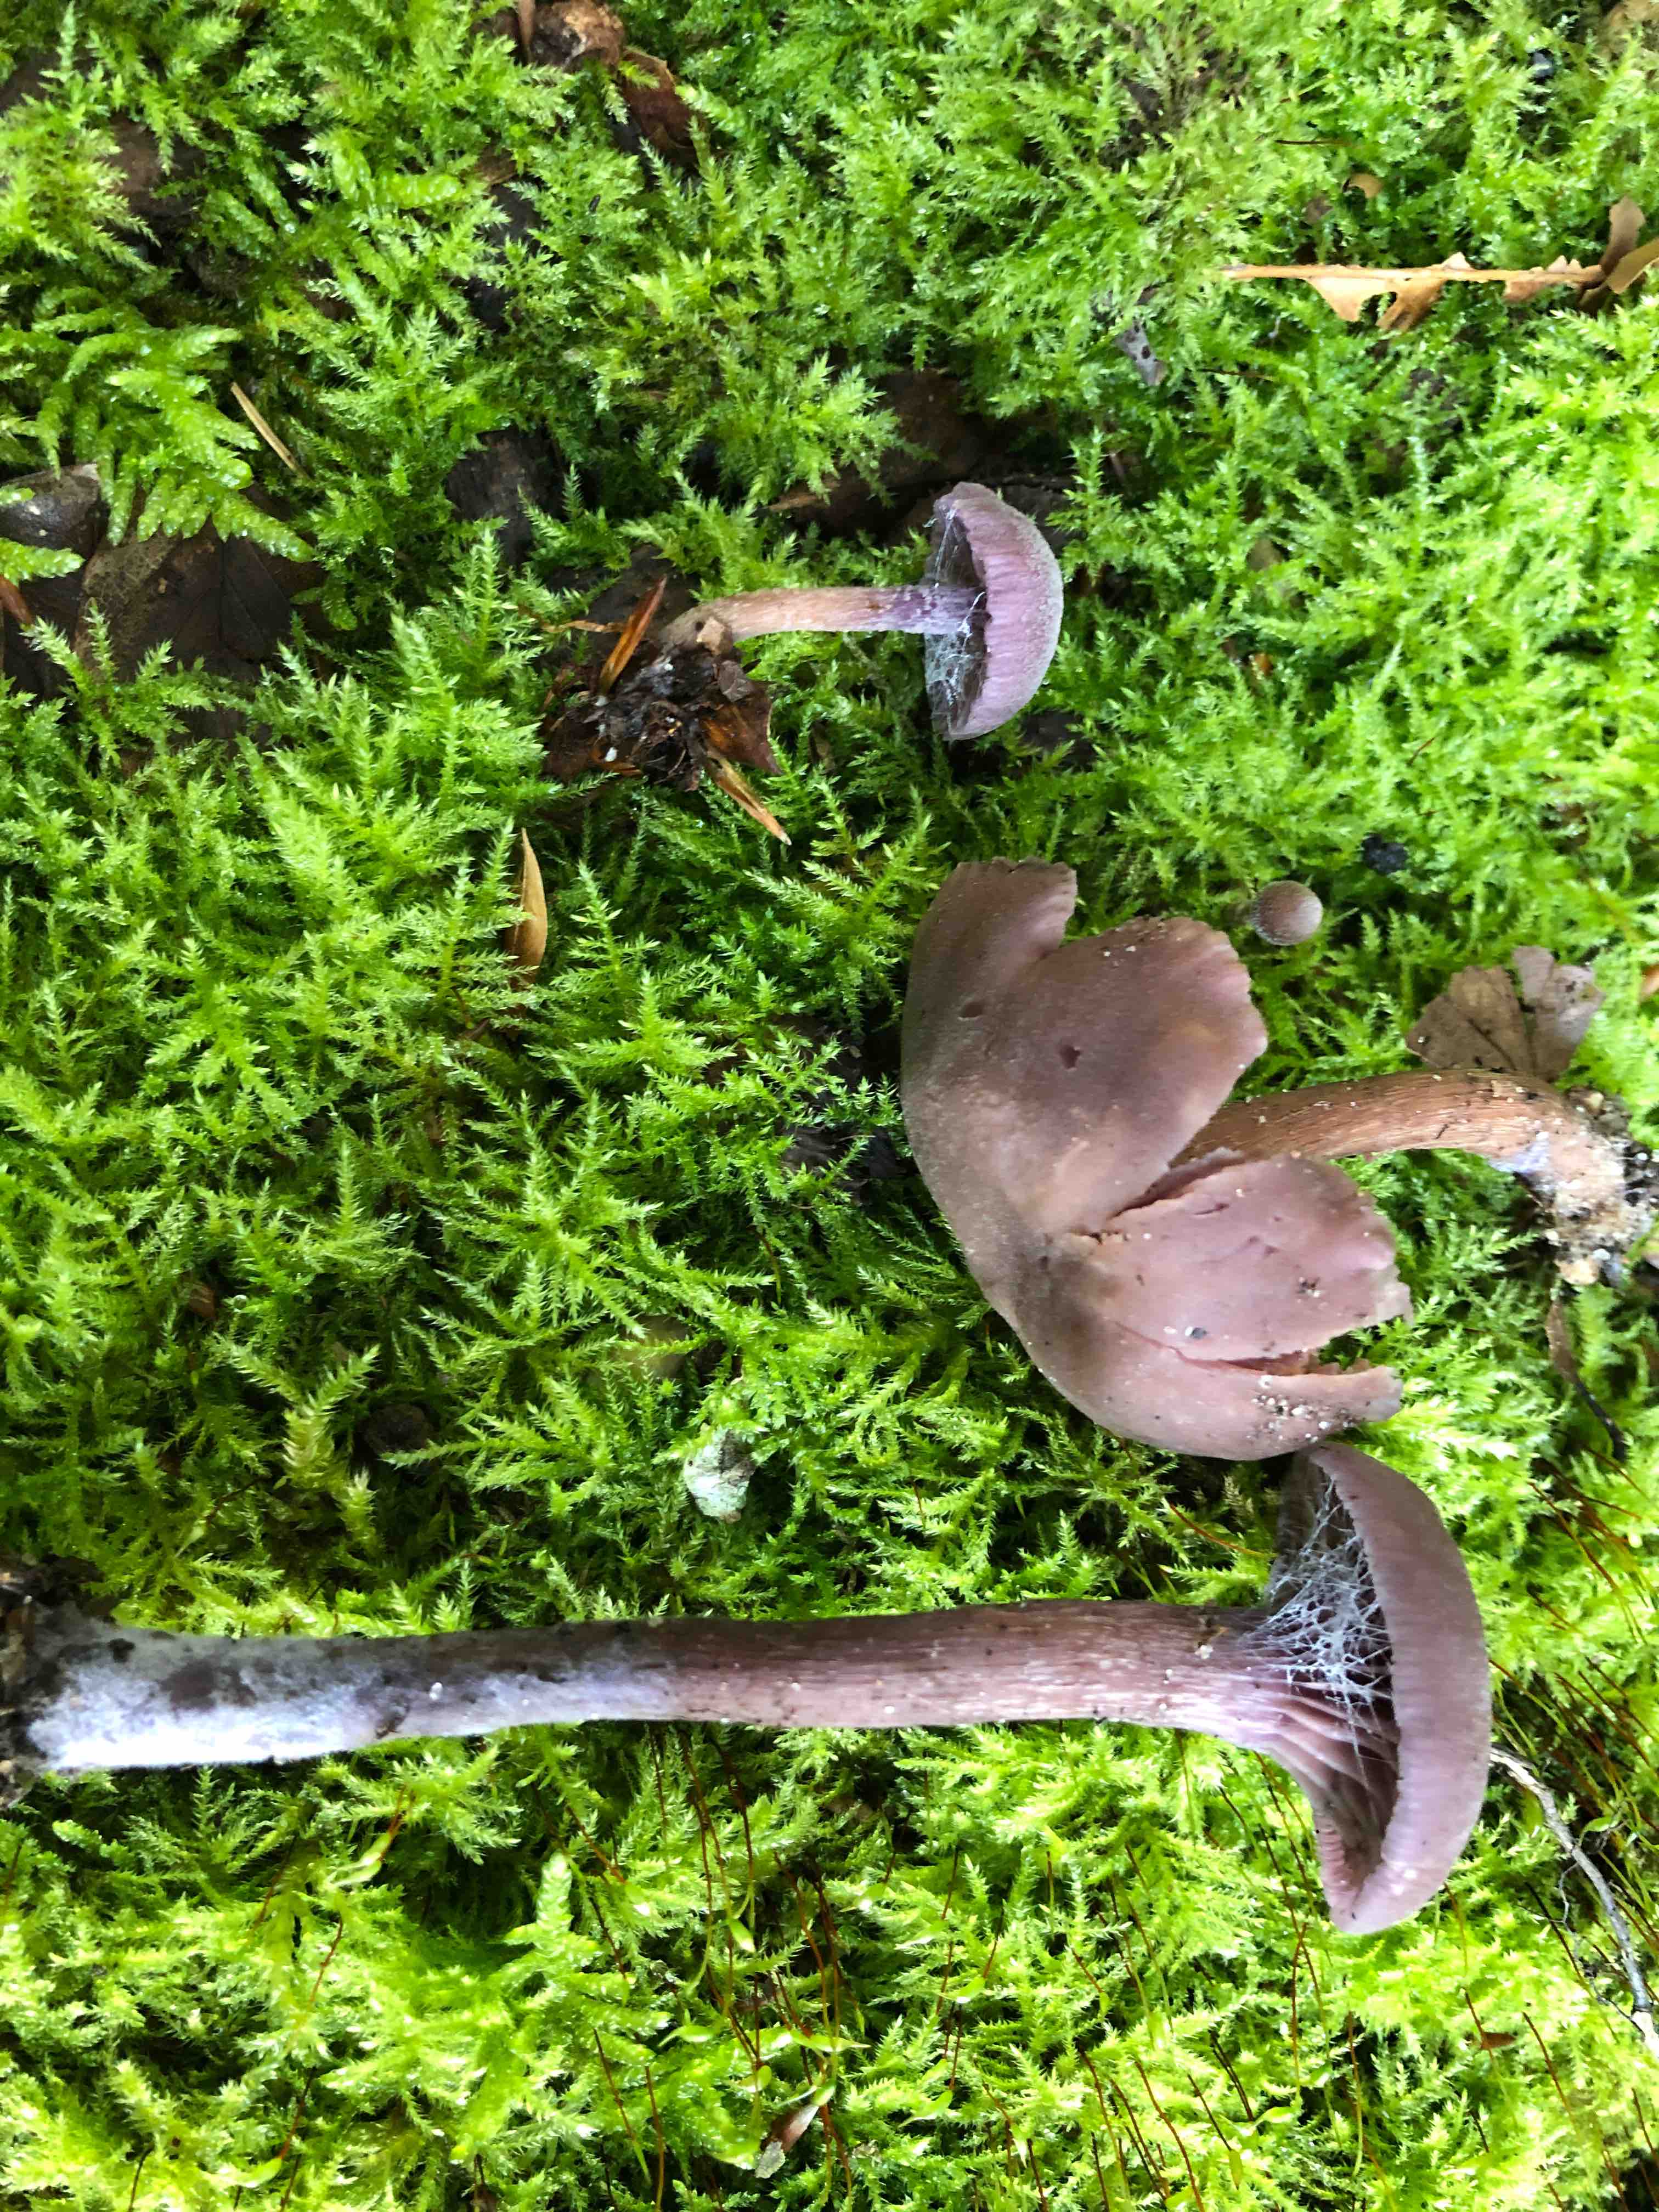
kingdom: Fungi
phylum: Basidiomycota
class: Agaricomycetes
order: Agaricales
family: Hydnangiaceae
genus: Laccaria
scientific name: Laccaria amethystina
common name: violet ametysthat
